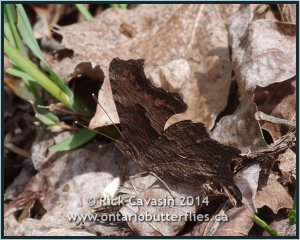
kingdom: Animalia
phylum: Arthropoda
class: Insecta
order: Lepidoptera
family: Nymphalidae
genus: Polygonia
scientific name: Polygonia progne
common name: Gray Comma
